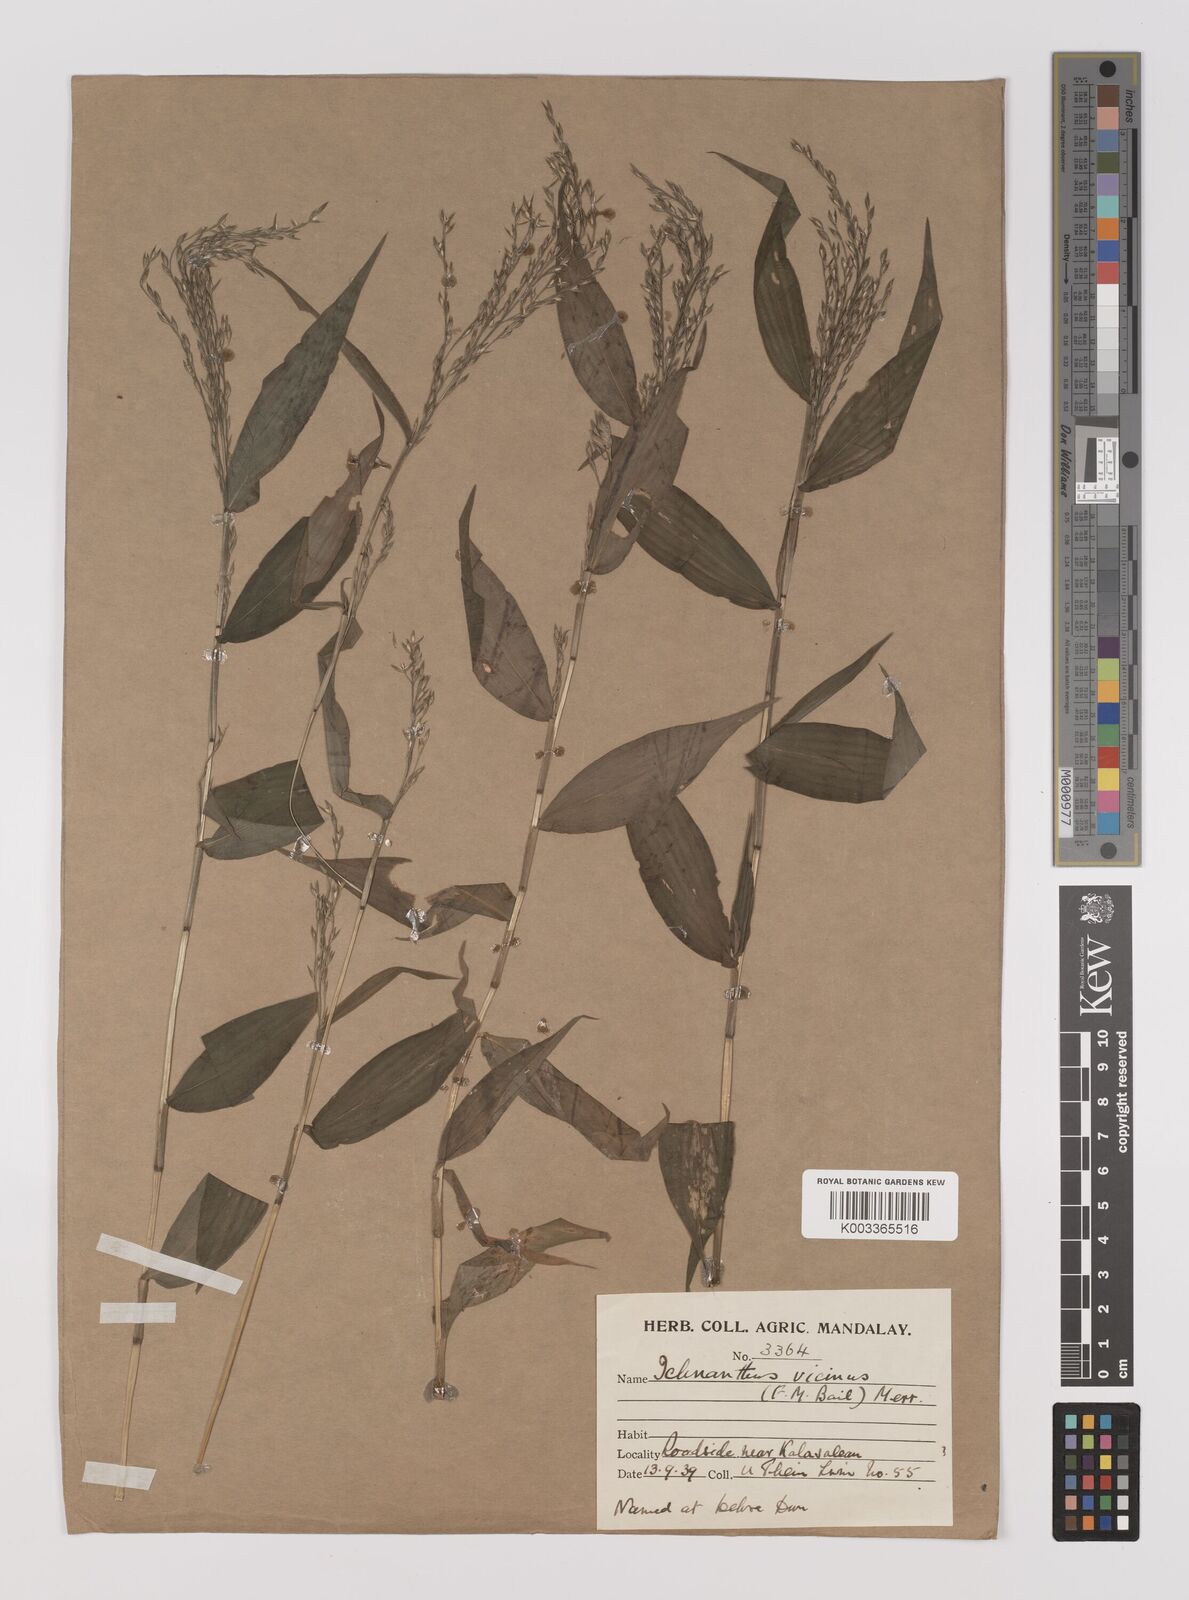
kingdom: Plantae
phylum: Tracheophyta
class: Liliopsida
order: Poales
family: Poaceae
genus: Ichnanthus
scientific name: Ichnanthus pallens
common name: Water grass
